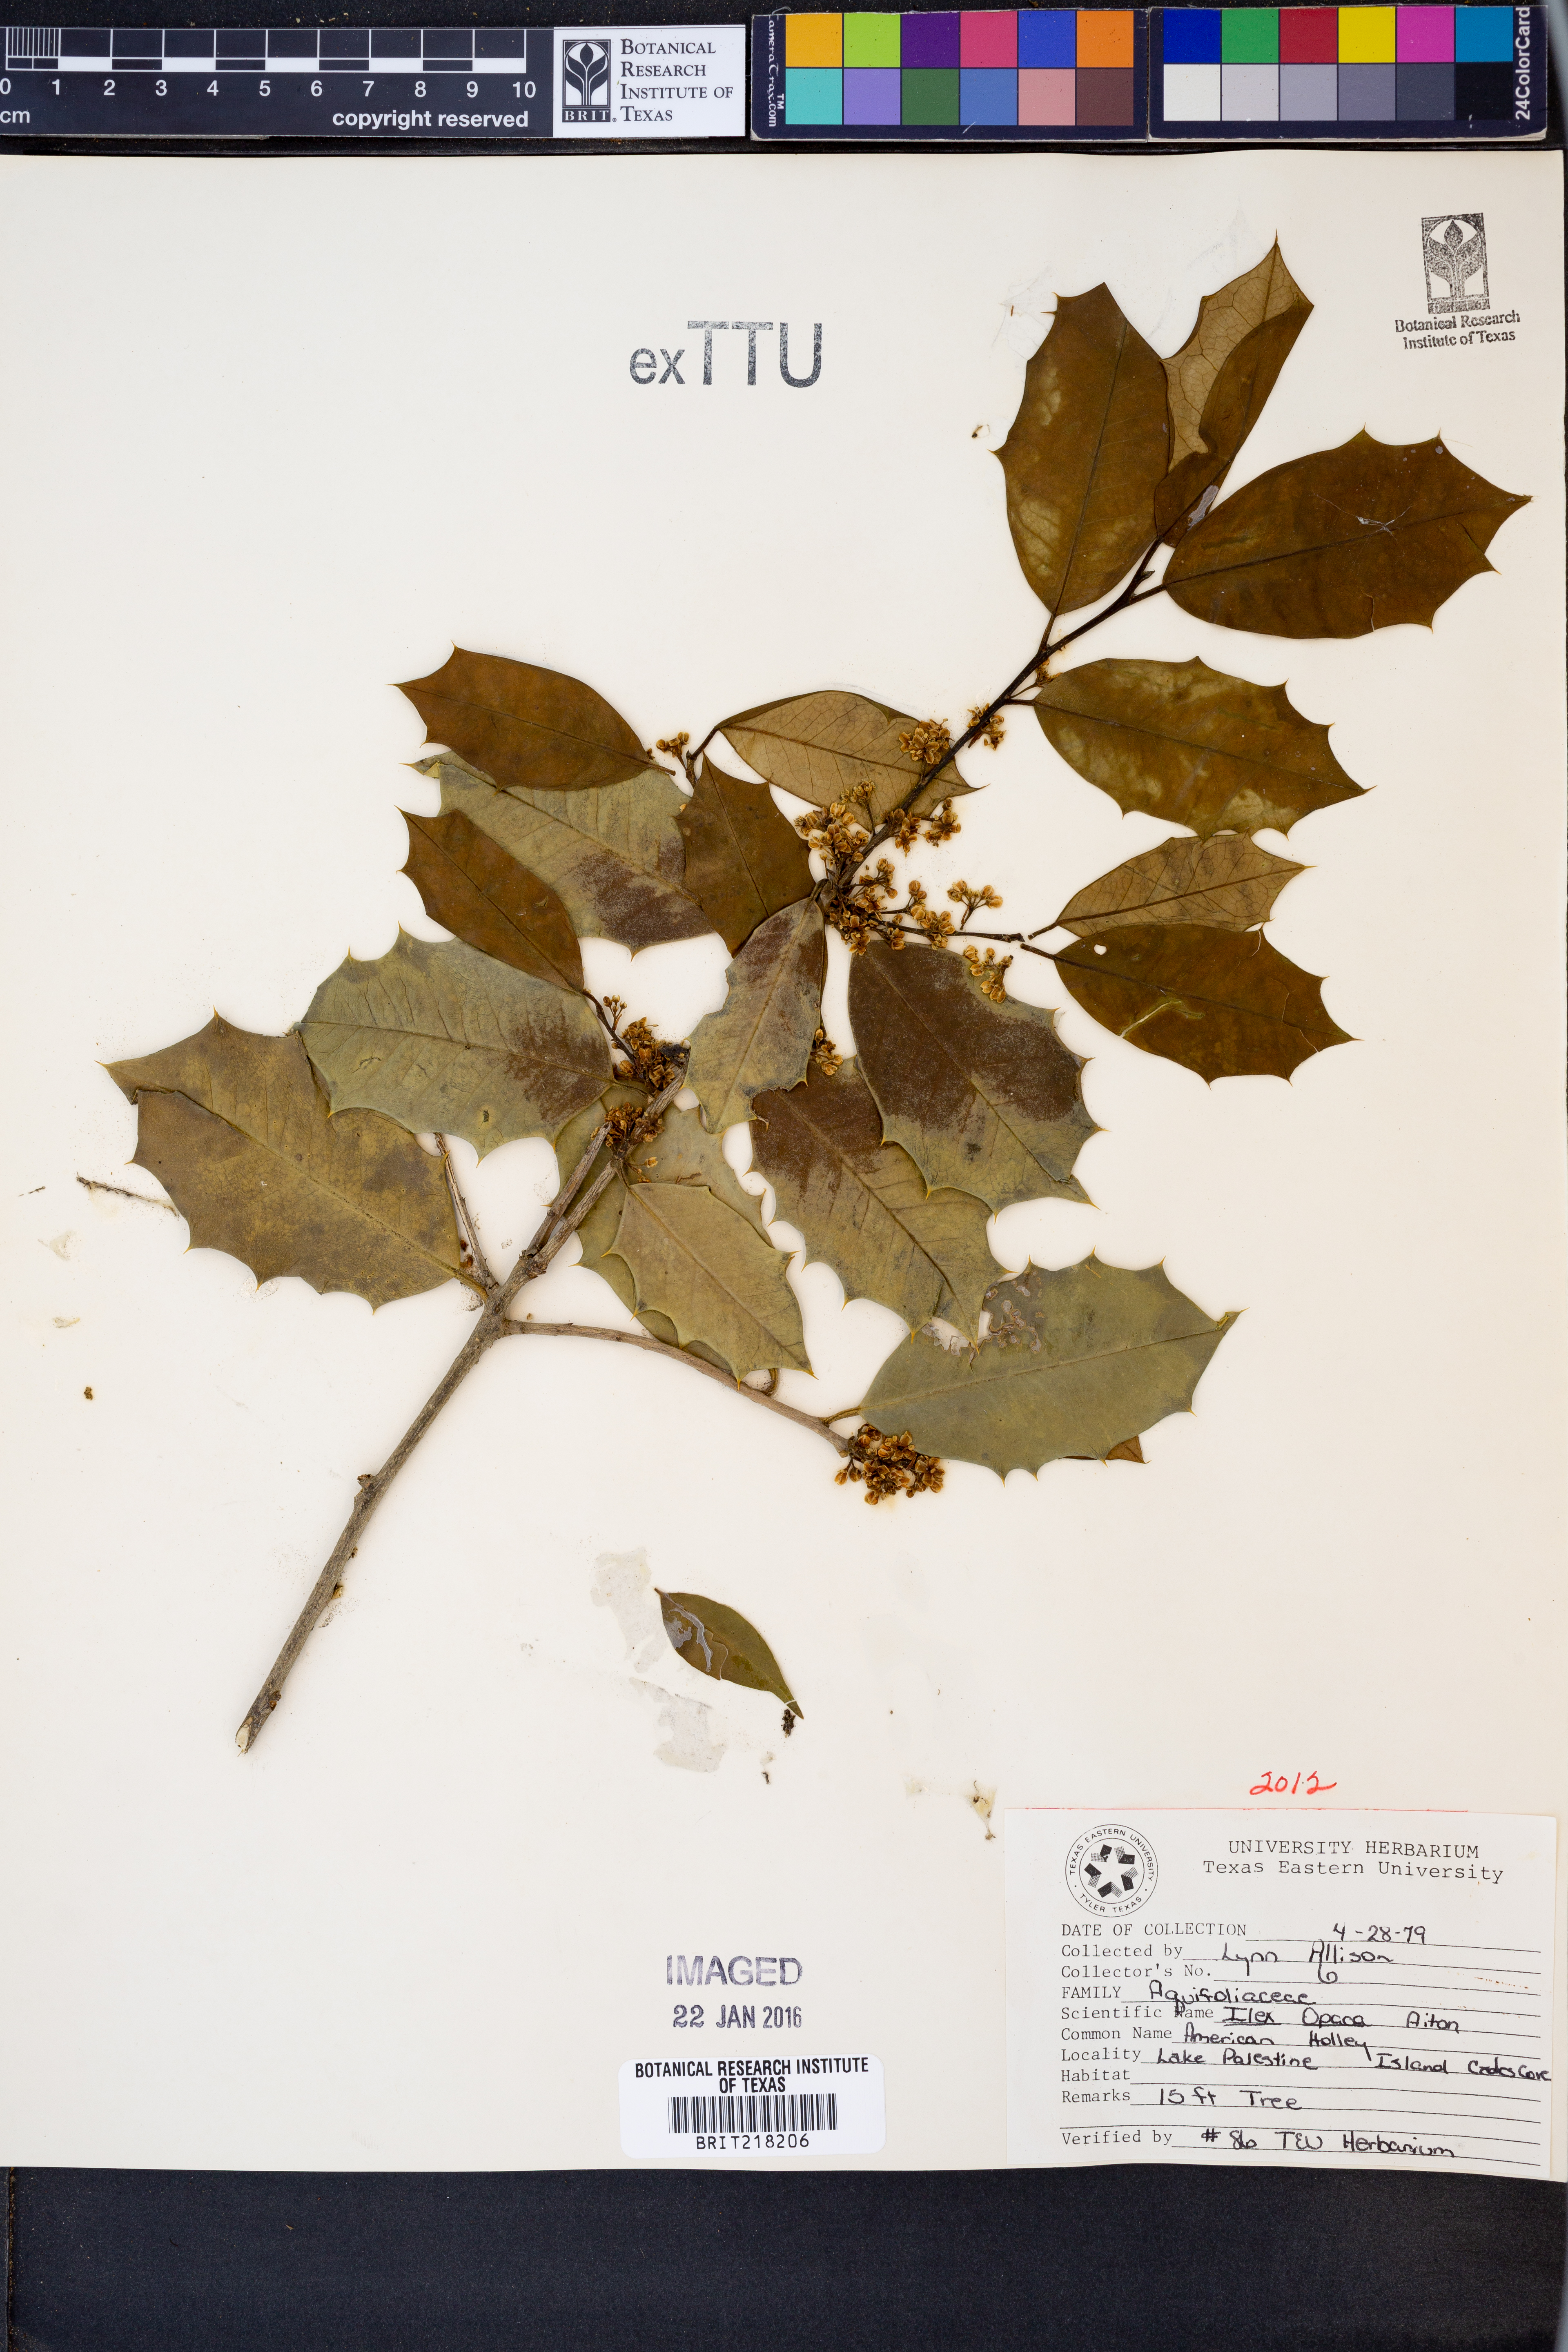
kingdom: Plantae
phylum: Tracheophyta
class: Magnoliopsida
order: Aquifoliales
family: Aquifoliaceae
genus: Ilex
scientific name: Ilex opaca
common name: American holly
